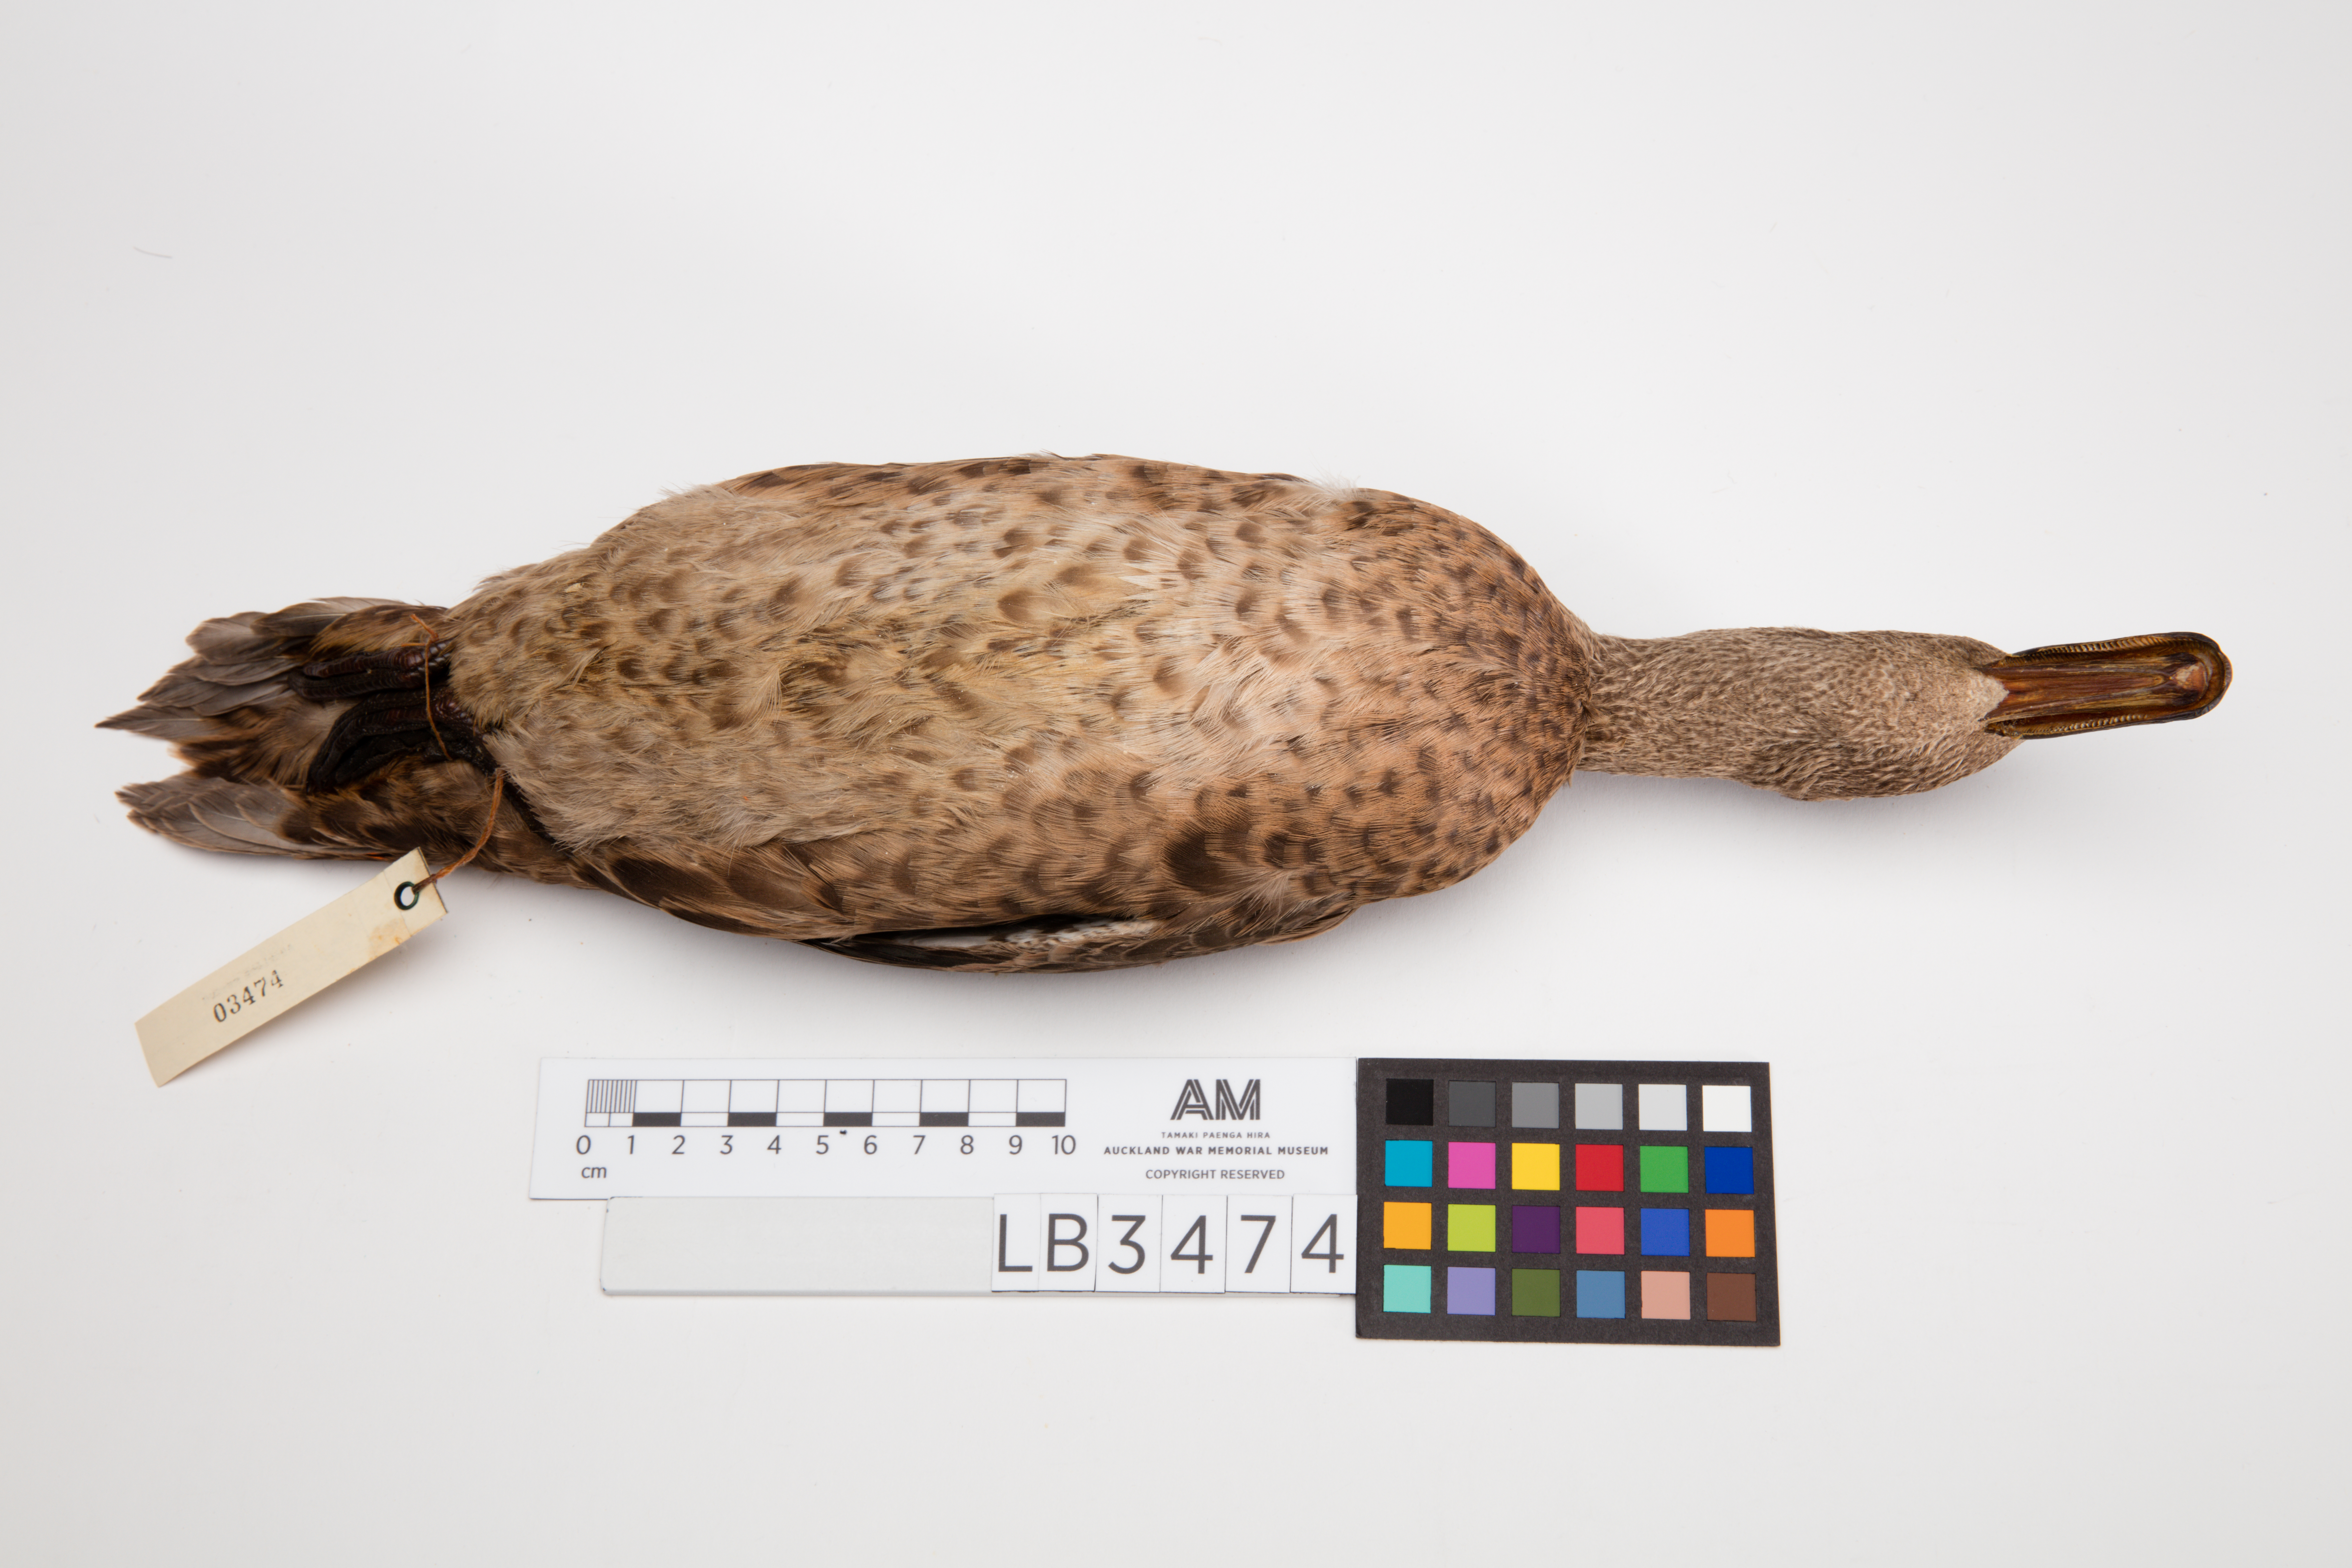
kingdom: Animalia
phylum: Chordata
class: Aves
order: Anseriformes
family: Anatidae
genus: Anas
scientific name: Anas chlorotis
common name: Brown teal
